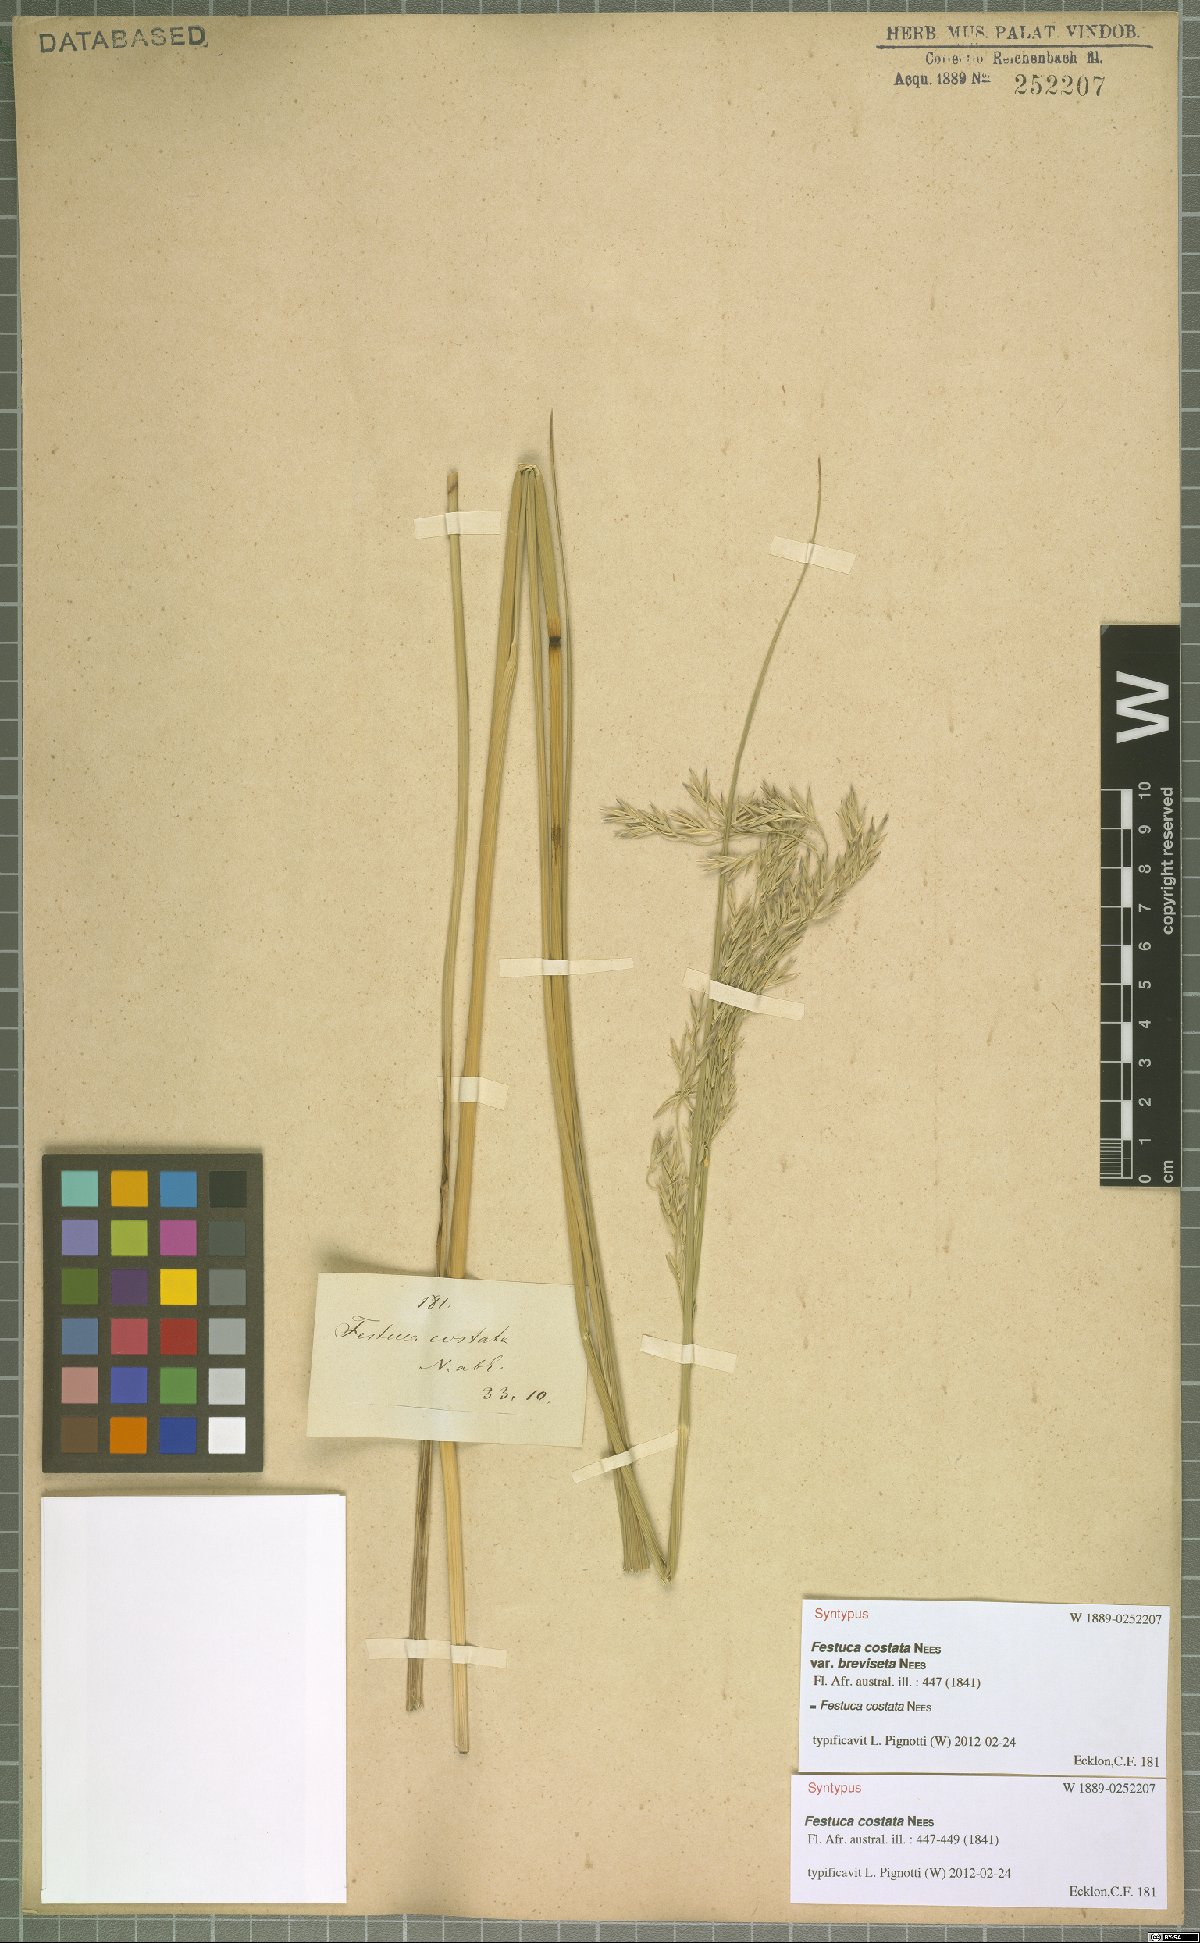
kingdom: Plantae
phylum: Tracheophyta
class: Liliopsida
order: Poales
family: Poaceae
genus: Festuca
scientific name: Festuca costata
